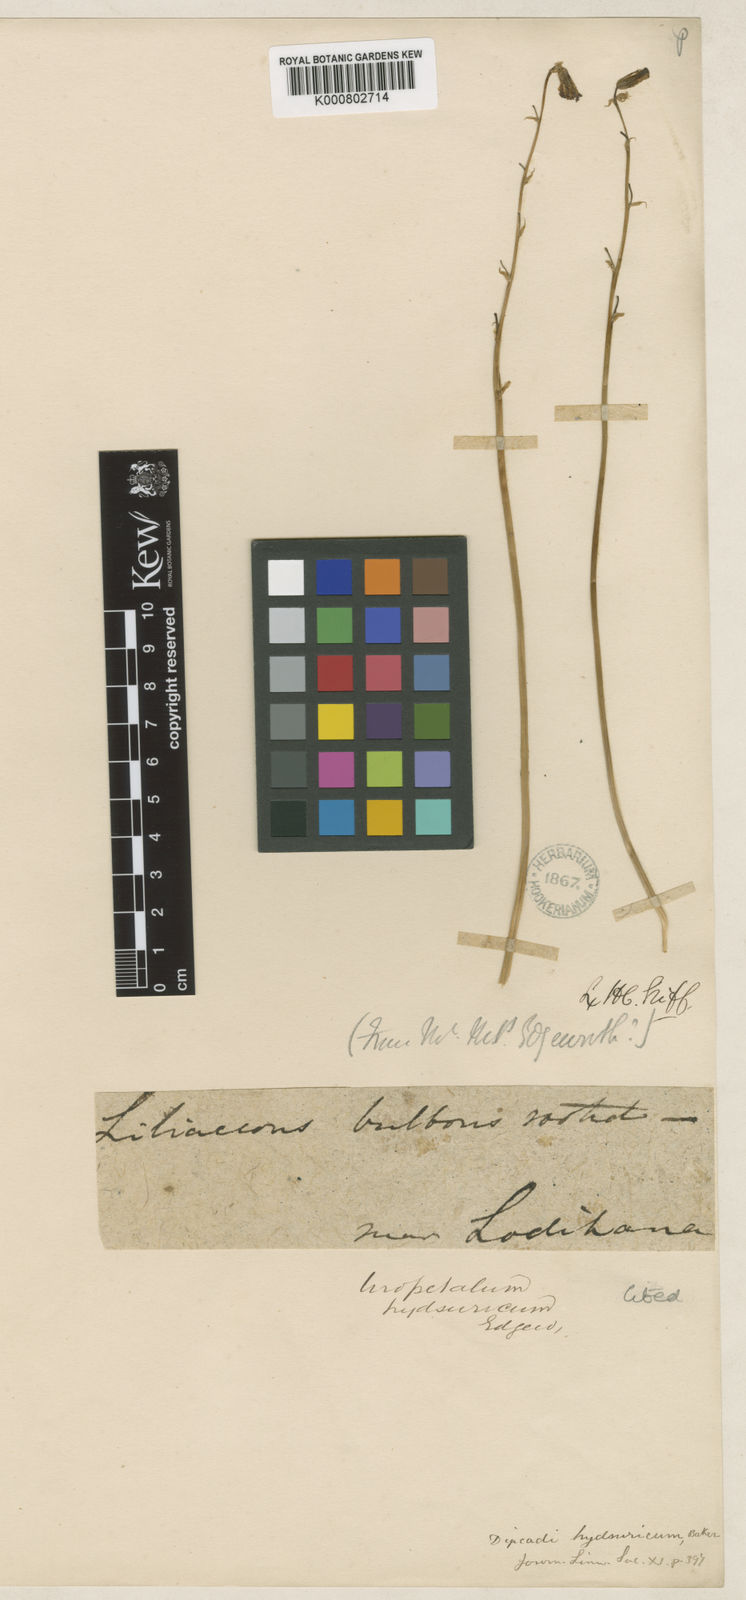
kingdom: Plantae
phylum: Tracheophyta
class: Liliopsida
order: Asparagales
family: Asparagaceae
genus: Dipcadi
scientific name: Dipcadi serotinum
